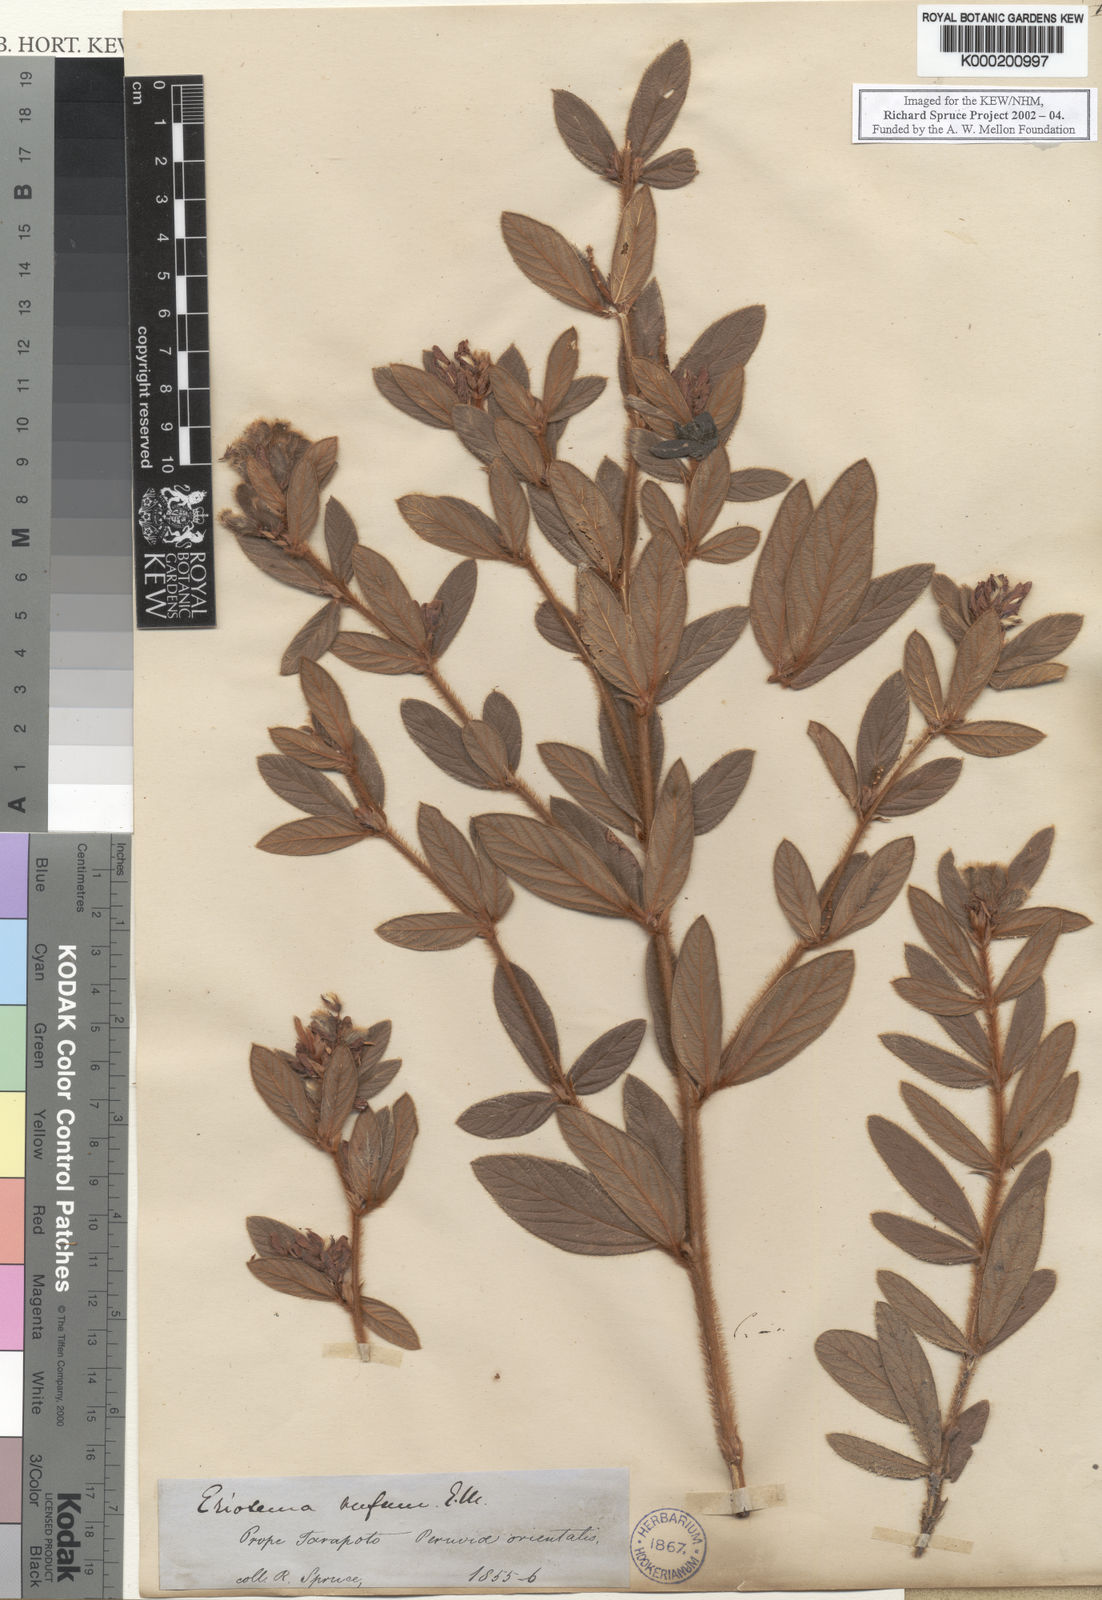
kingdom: Plantae
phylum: Tracheophyta
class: Magnoliopsida
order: Fabales
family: Fabaceae
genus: Eriosema
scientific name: Eriosema rufum
